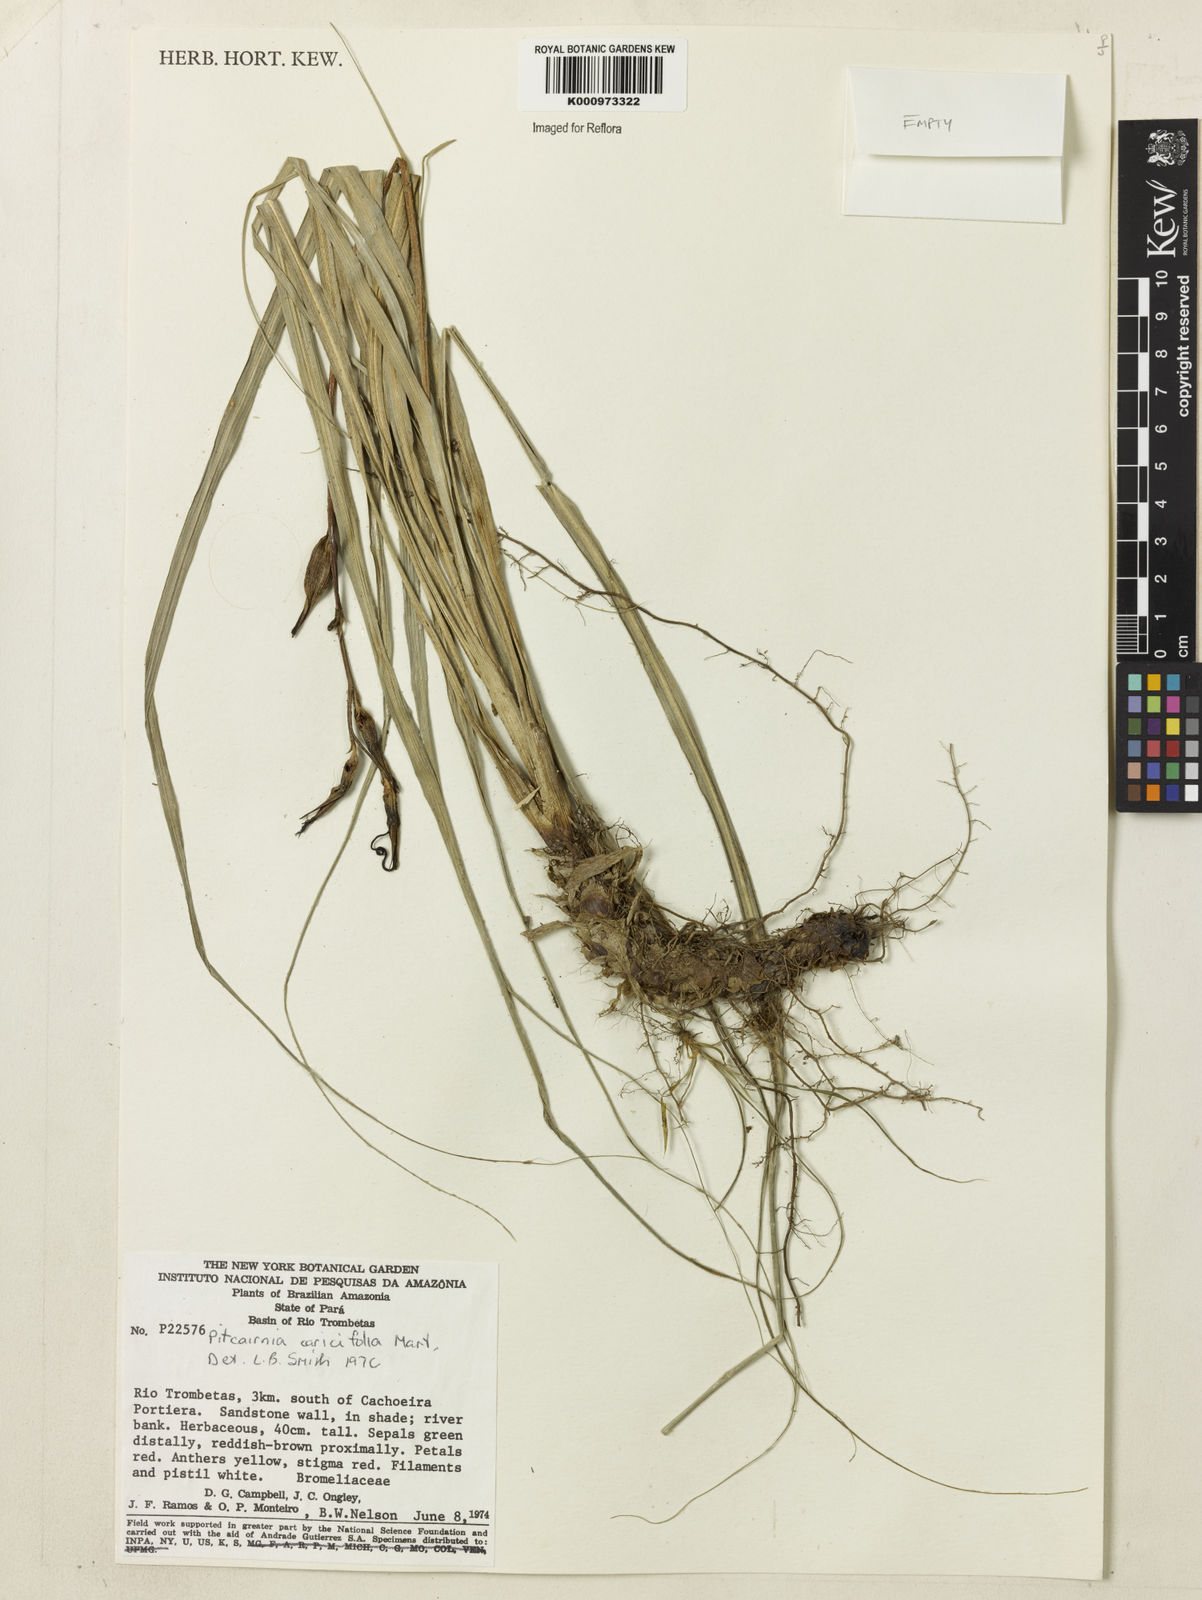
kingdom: Plantae
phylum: Tracheophyta
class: Liliopsida
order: Poales
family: Bromeliaceae
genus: Pitcairnia
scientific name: Pitcairnia
